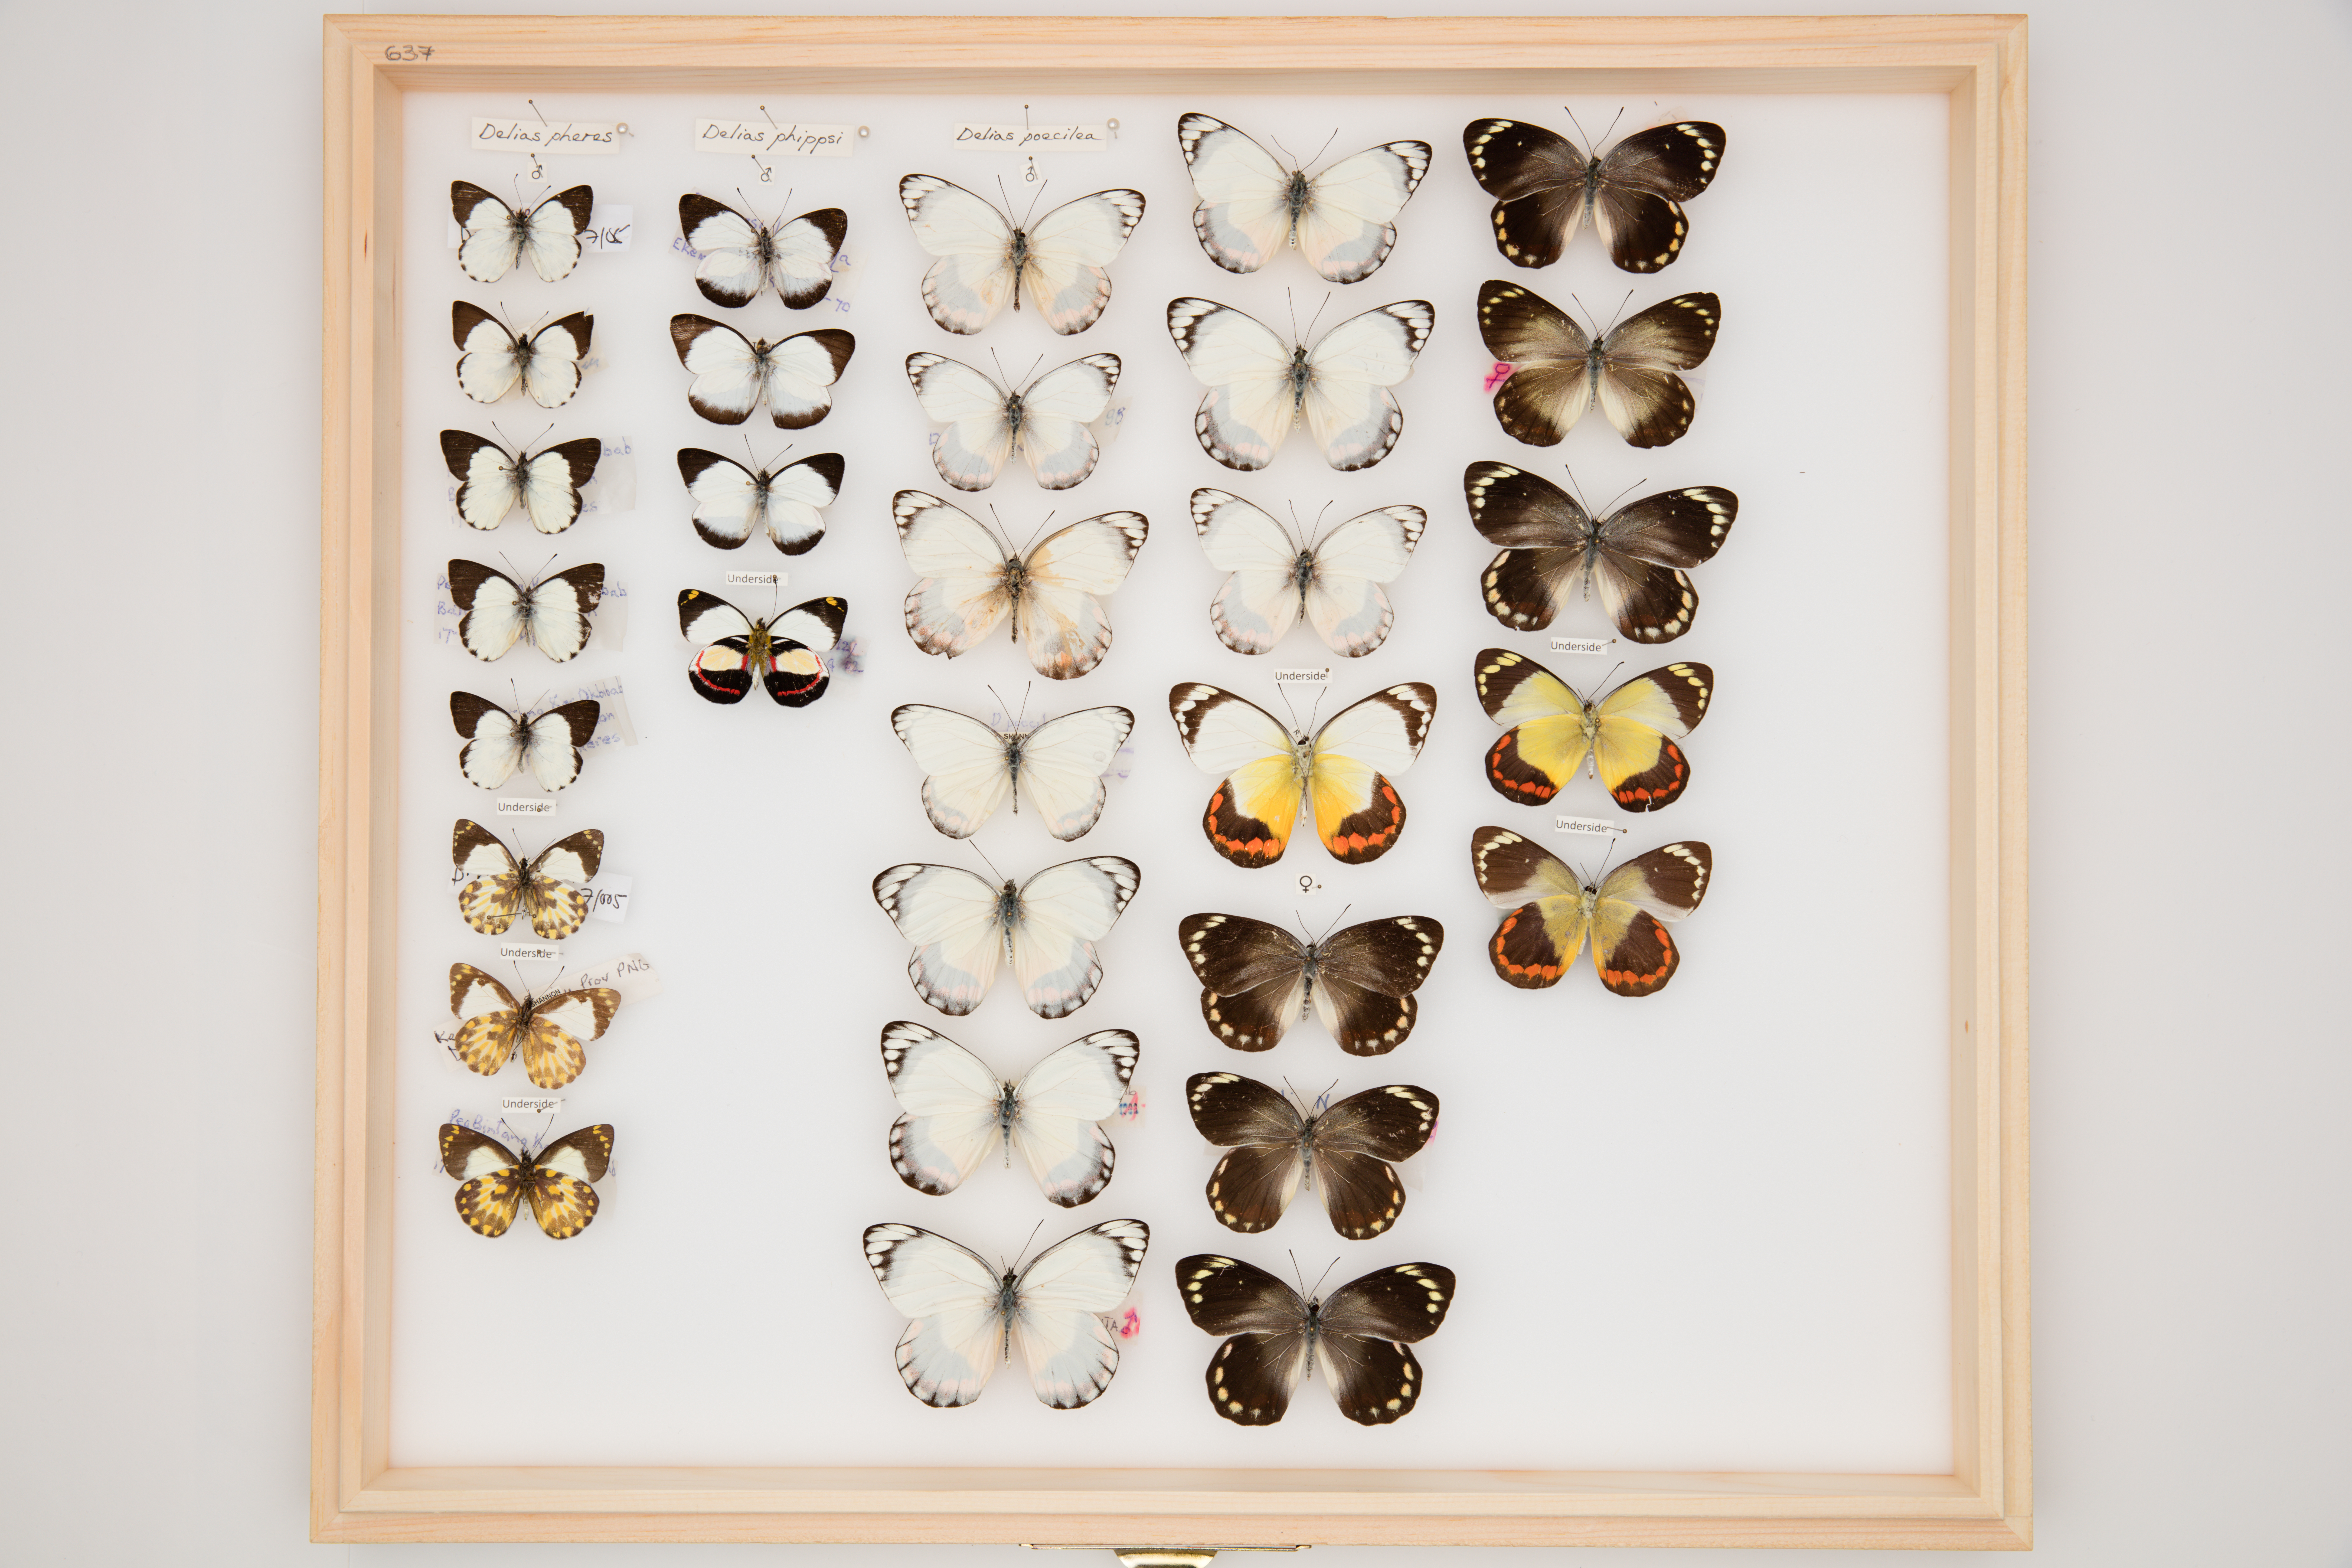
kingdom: Animalia
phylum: Arthropoda
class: Insecta
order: Lepidoptera
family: Pieridae
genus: Delias
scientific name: Delias poecila
